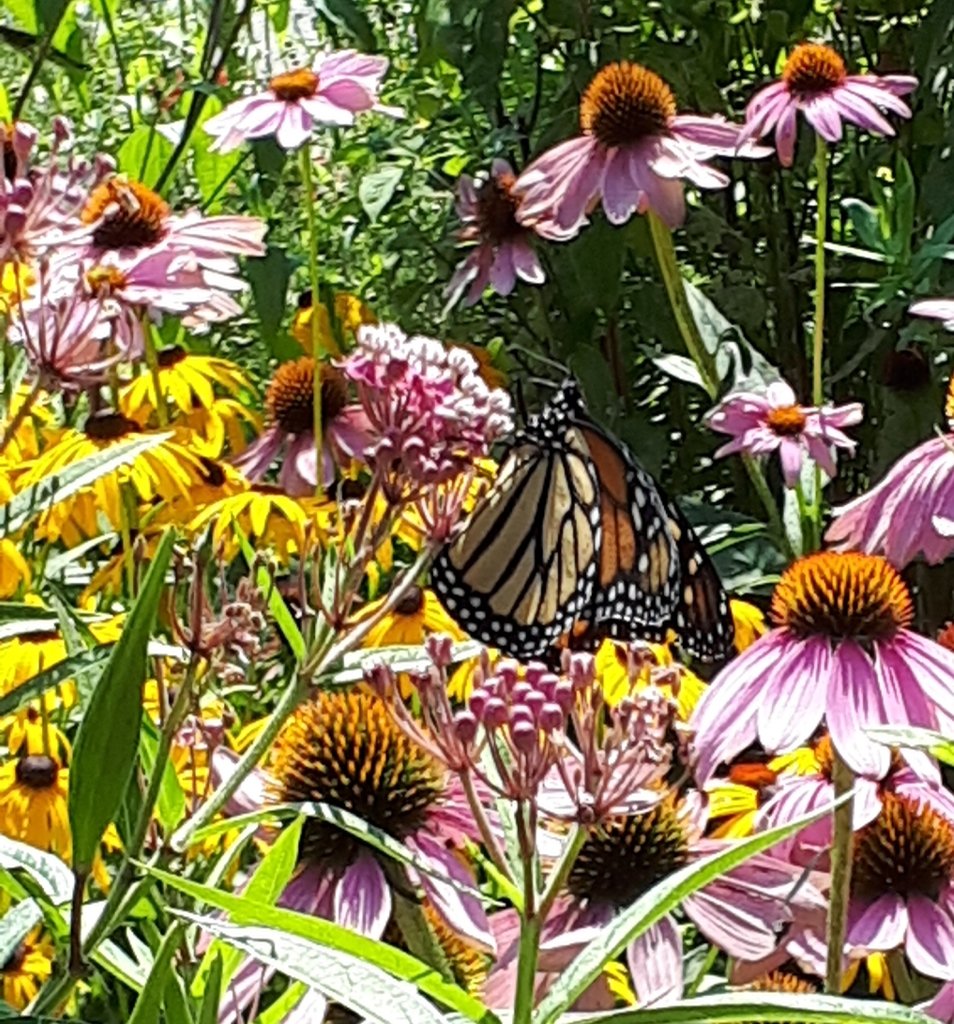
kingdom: Animalia
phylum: Arthropoda
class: Insecta
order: Lepidoptera
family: Nymphalidae
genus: Danaus
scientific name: Danaus plexippus
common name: Monarch
